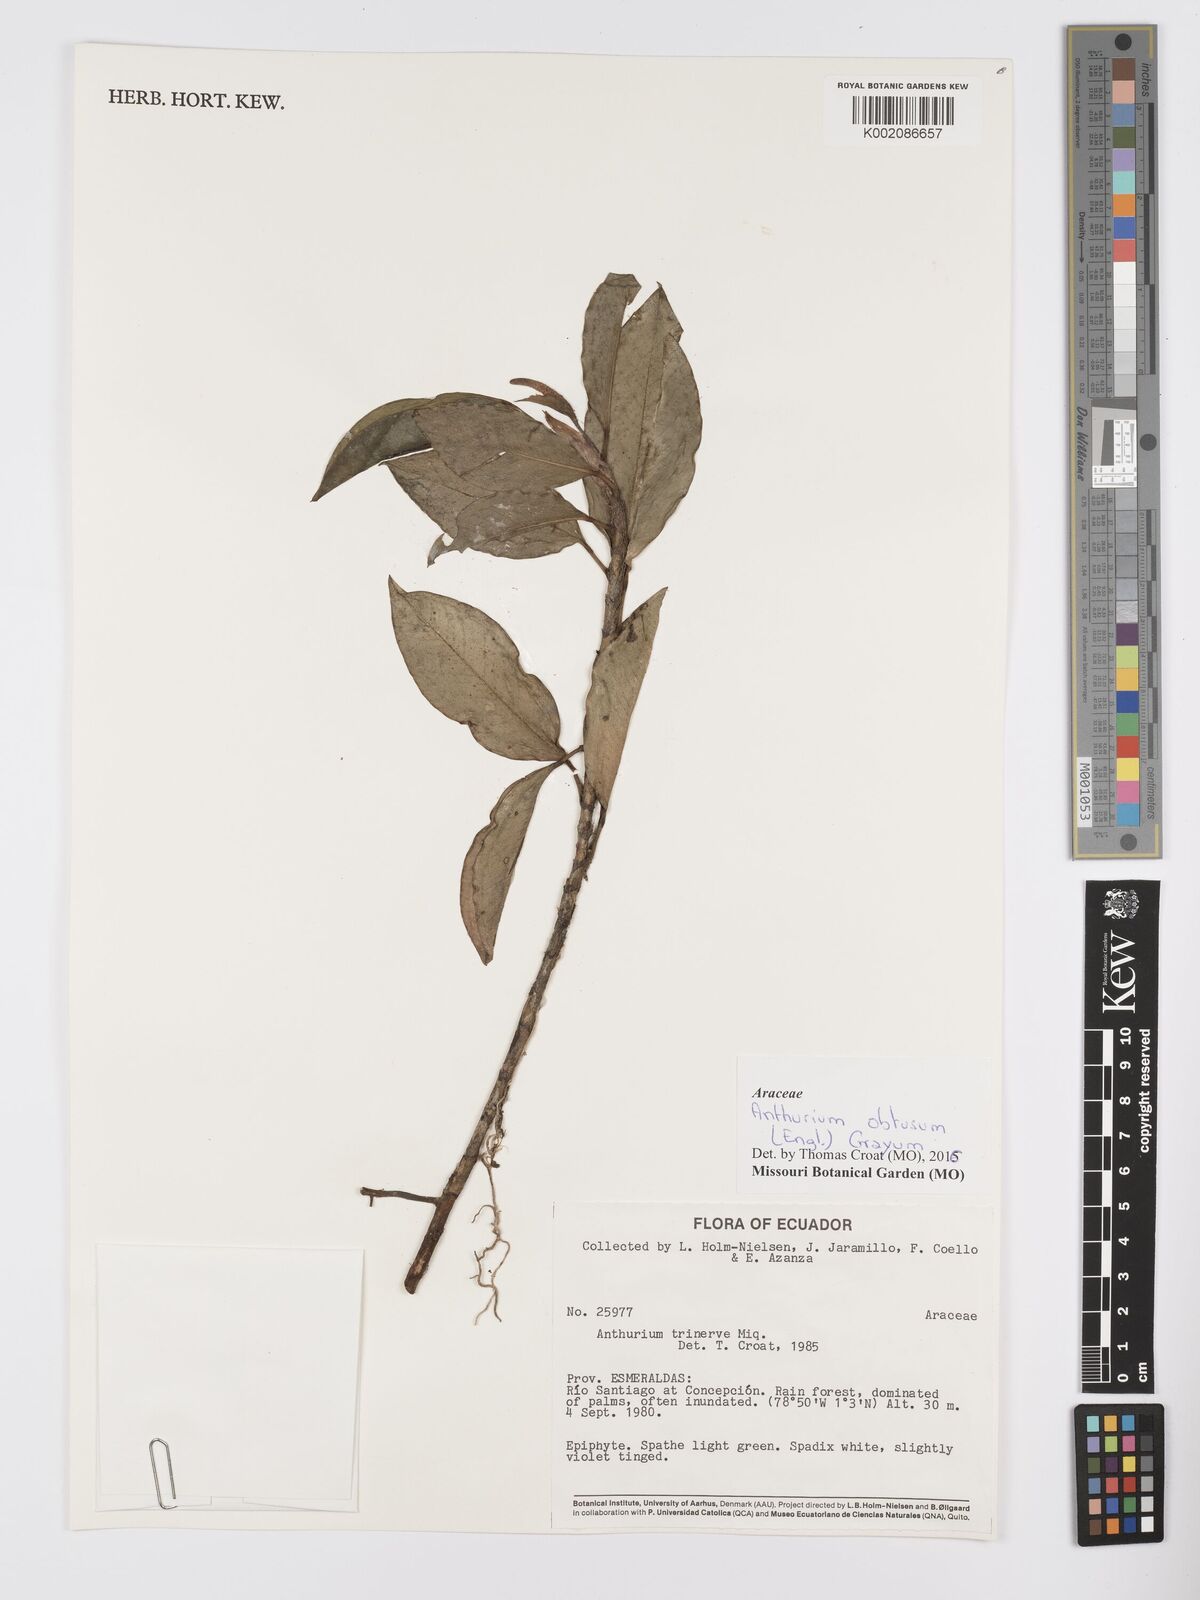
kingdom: Plantae
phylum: Tracheophyta
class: Liliopsida
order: Alismatales
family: Araceae
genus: Anthurium
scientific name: Anthurium obtusum
